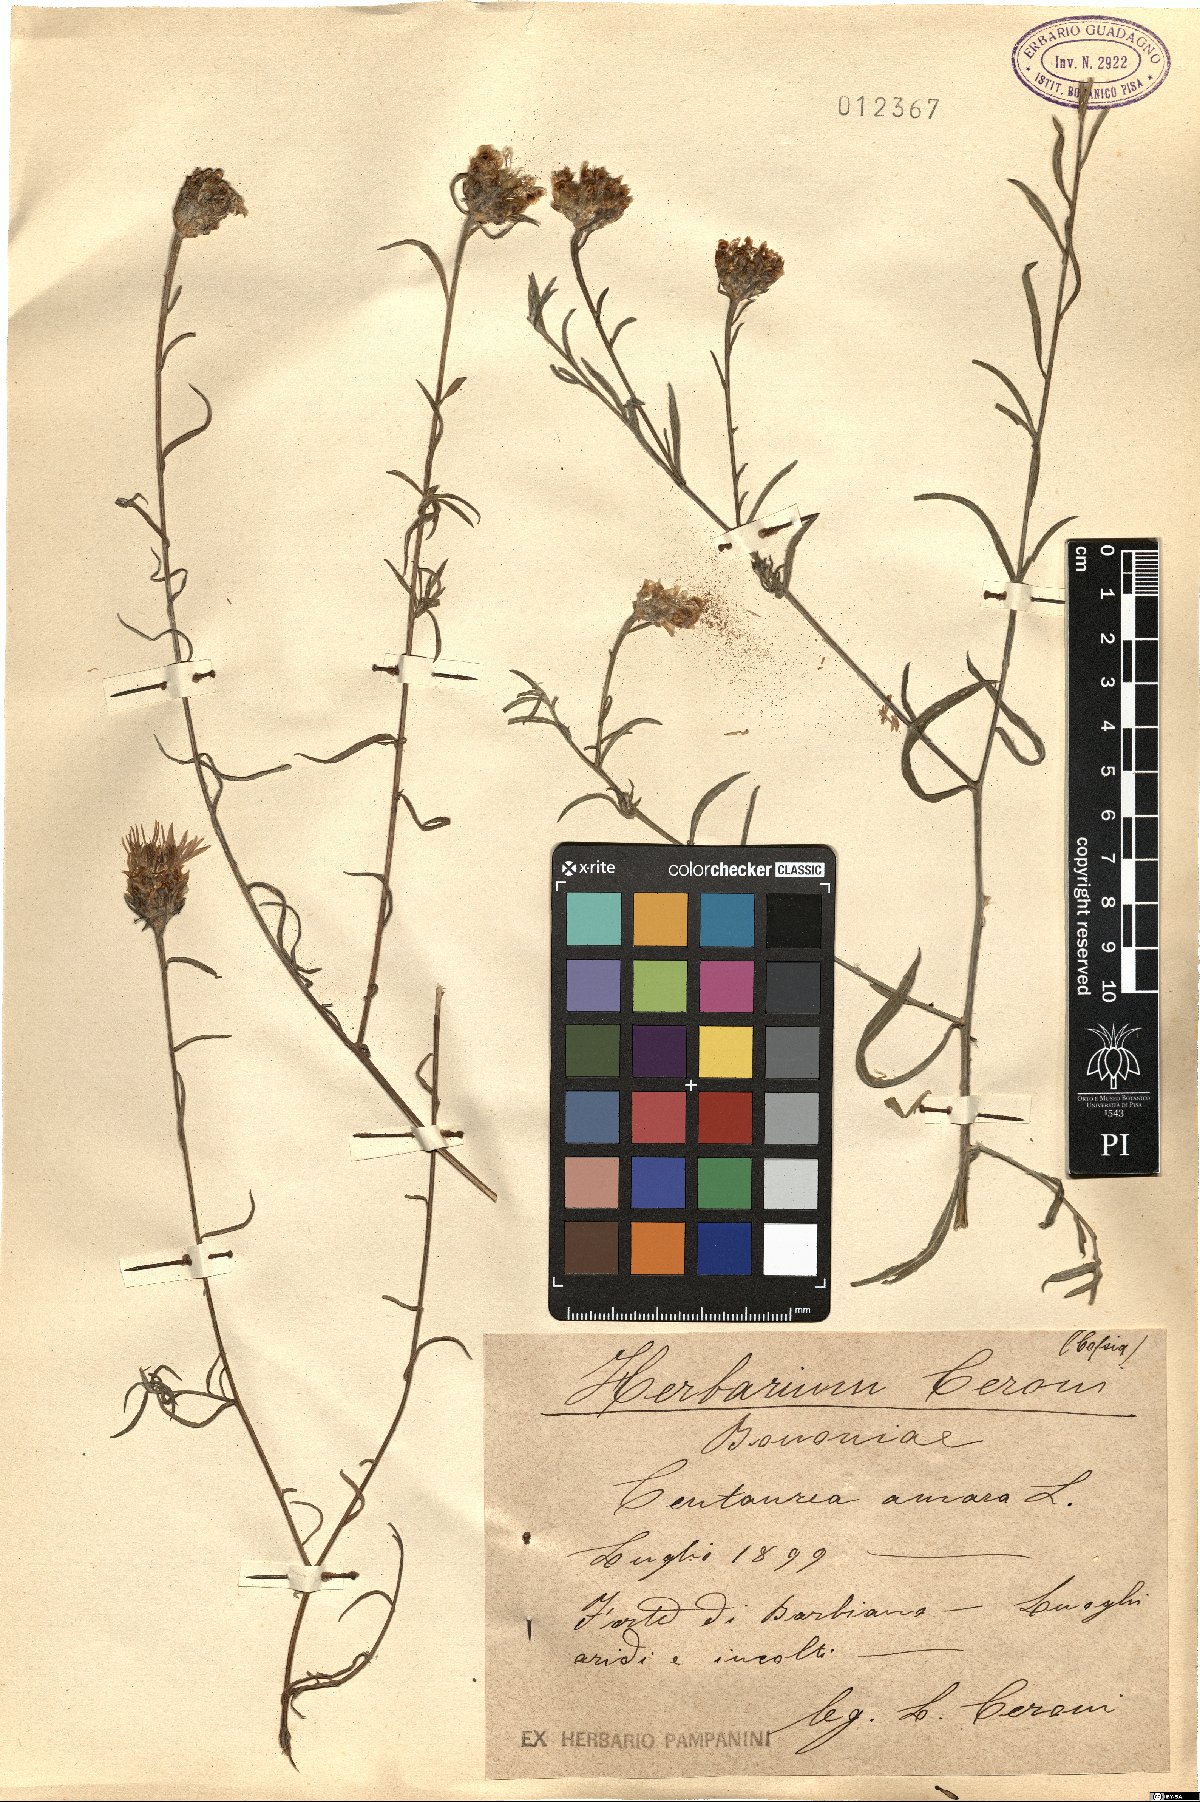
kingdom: Plantae
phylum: Tracheophyta
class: Magnoliopsida
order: Asterales
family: Asteraceae
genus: Centaurea
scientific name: Centaurea jacea
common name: Brown knapweed
